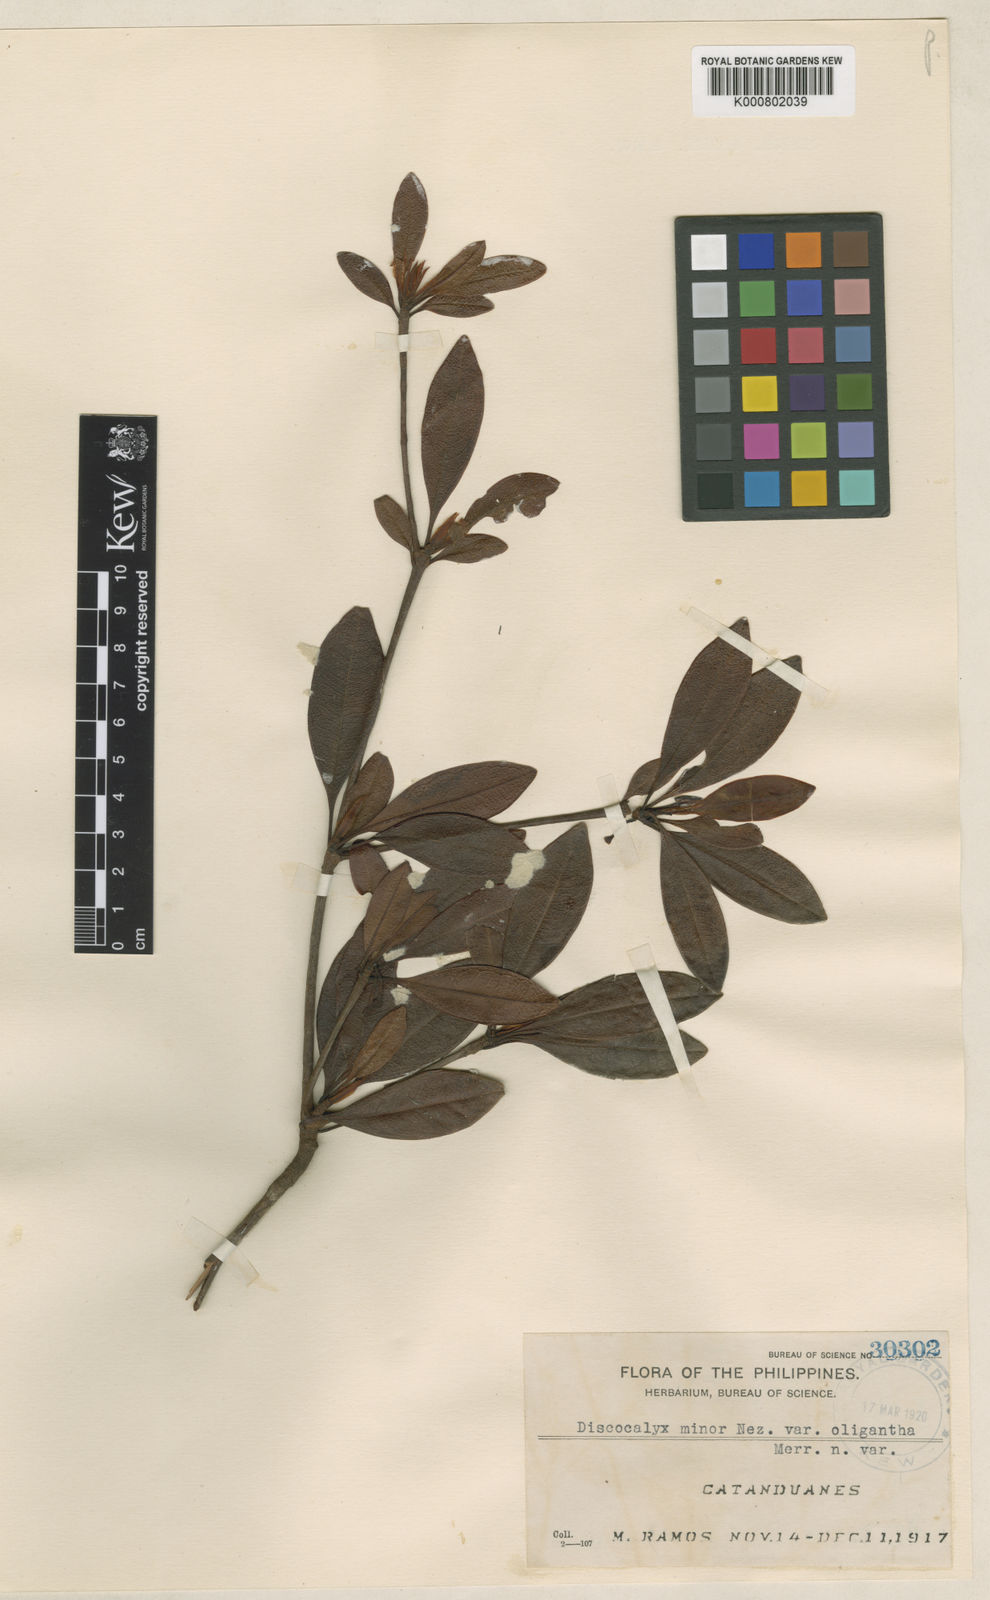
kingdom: Plantae
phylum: Tracheophyta
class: Magnoliopsida
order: Ericales
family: Primulaceae
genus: Discocalyx
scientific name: Discocalyx minor
